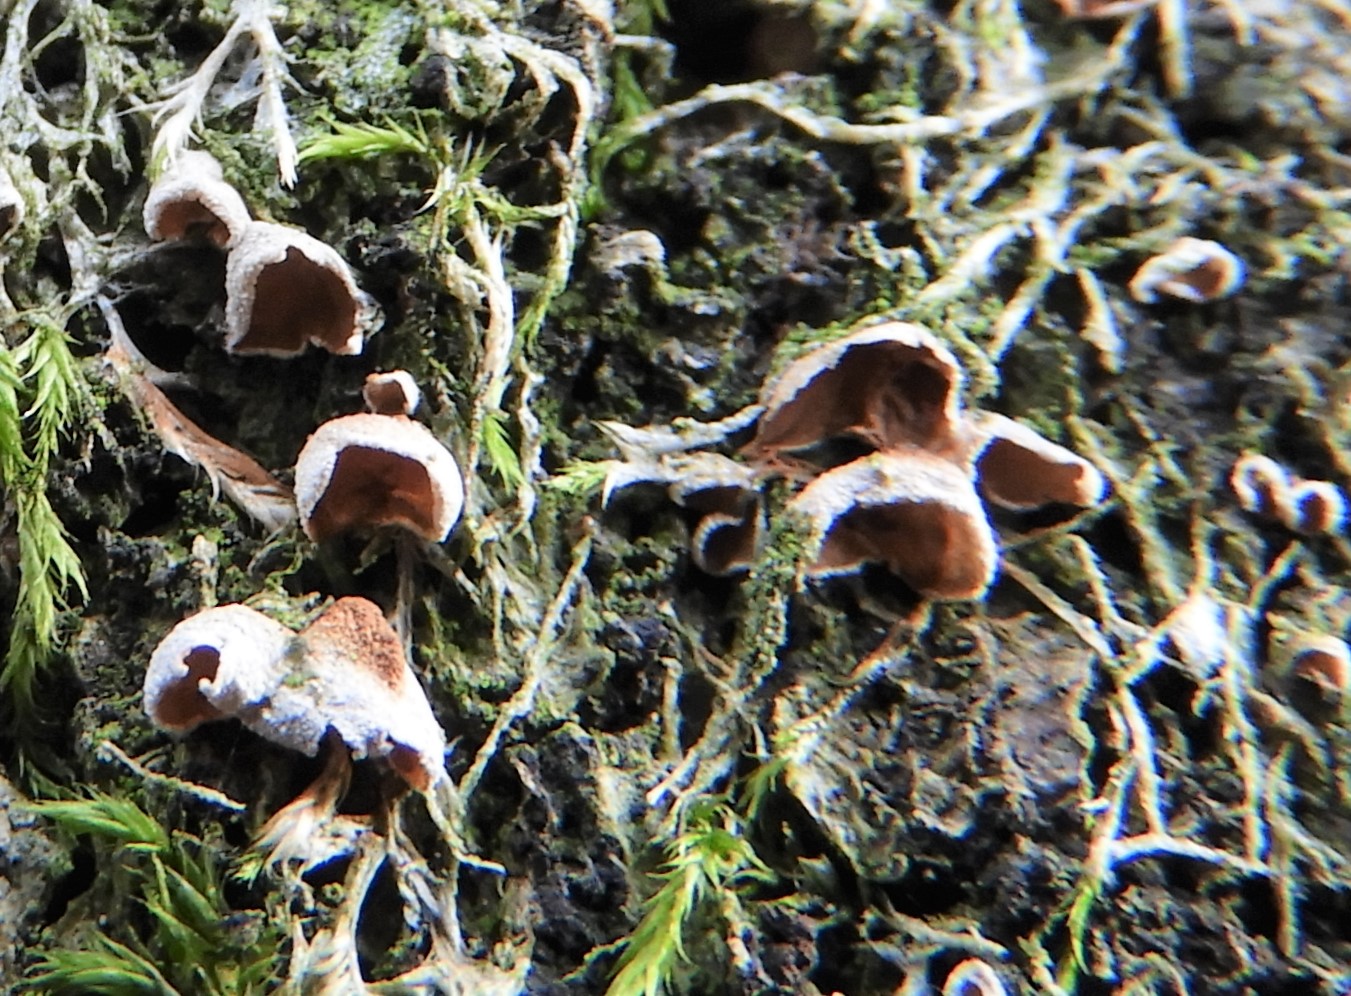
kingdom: Fungi
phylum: Basidiomycota
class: Agaricomycetes
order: Agaricales
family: Chromocyphellaceae
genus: Chromocyphella
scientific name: Chromocyphella muscicola
